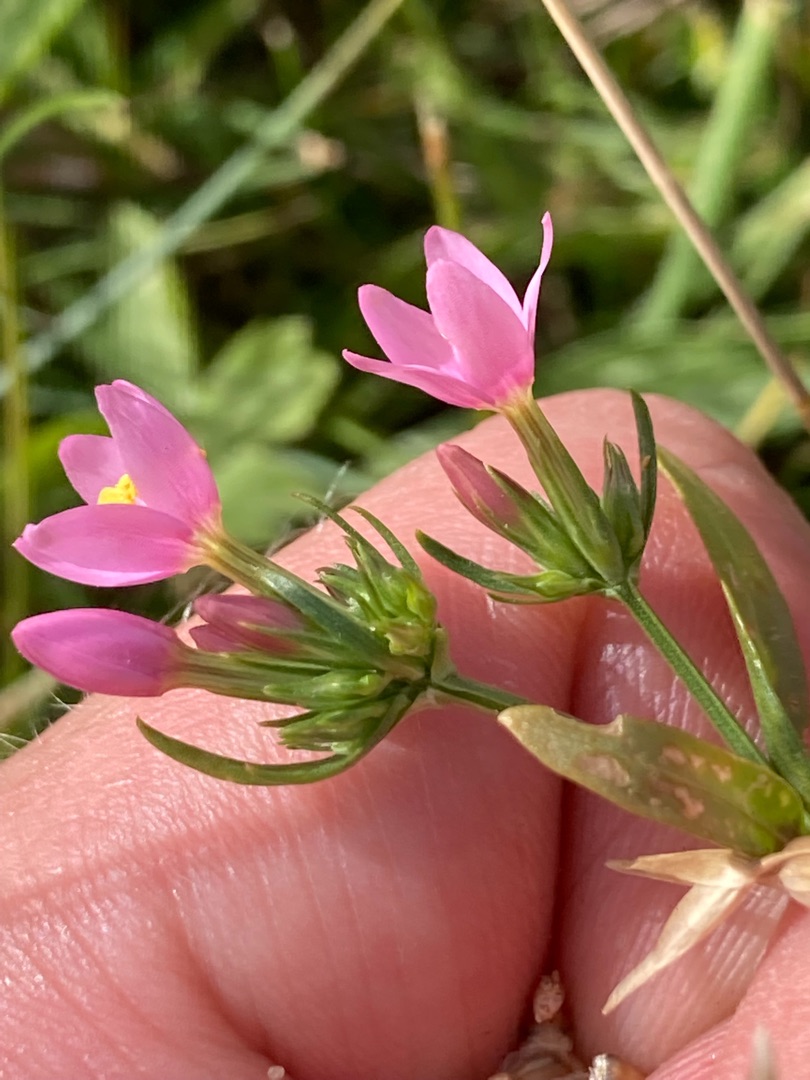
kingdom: Plantae
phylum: Tracheophyta
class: Magnoliopsida
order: Gentianales
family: Gentianaceae
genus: Centaurium
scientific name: Centaurium erythraea
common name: Mark-tusindgylden
